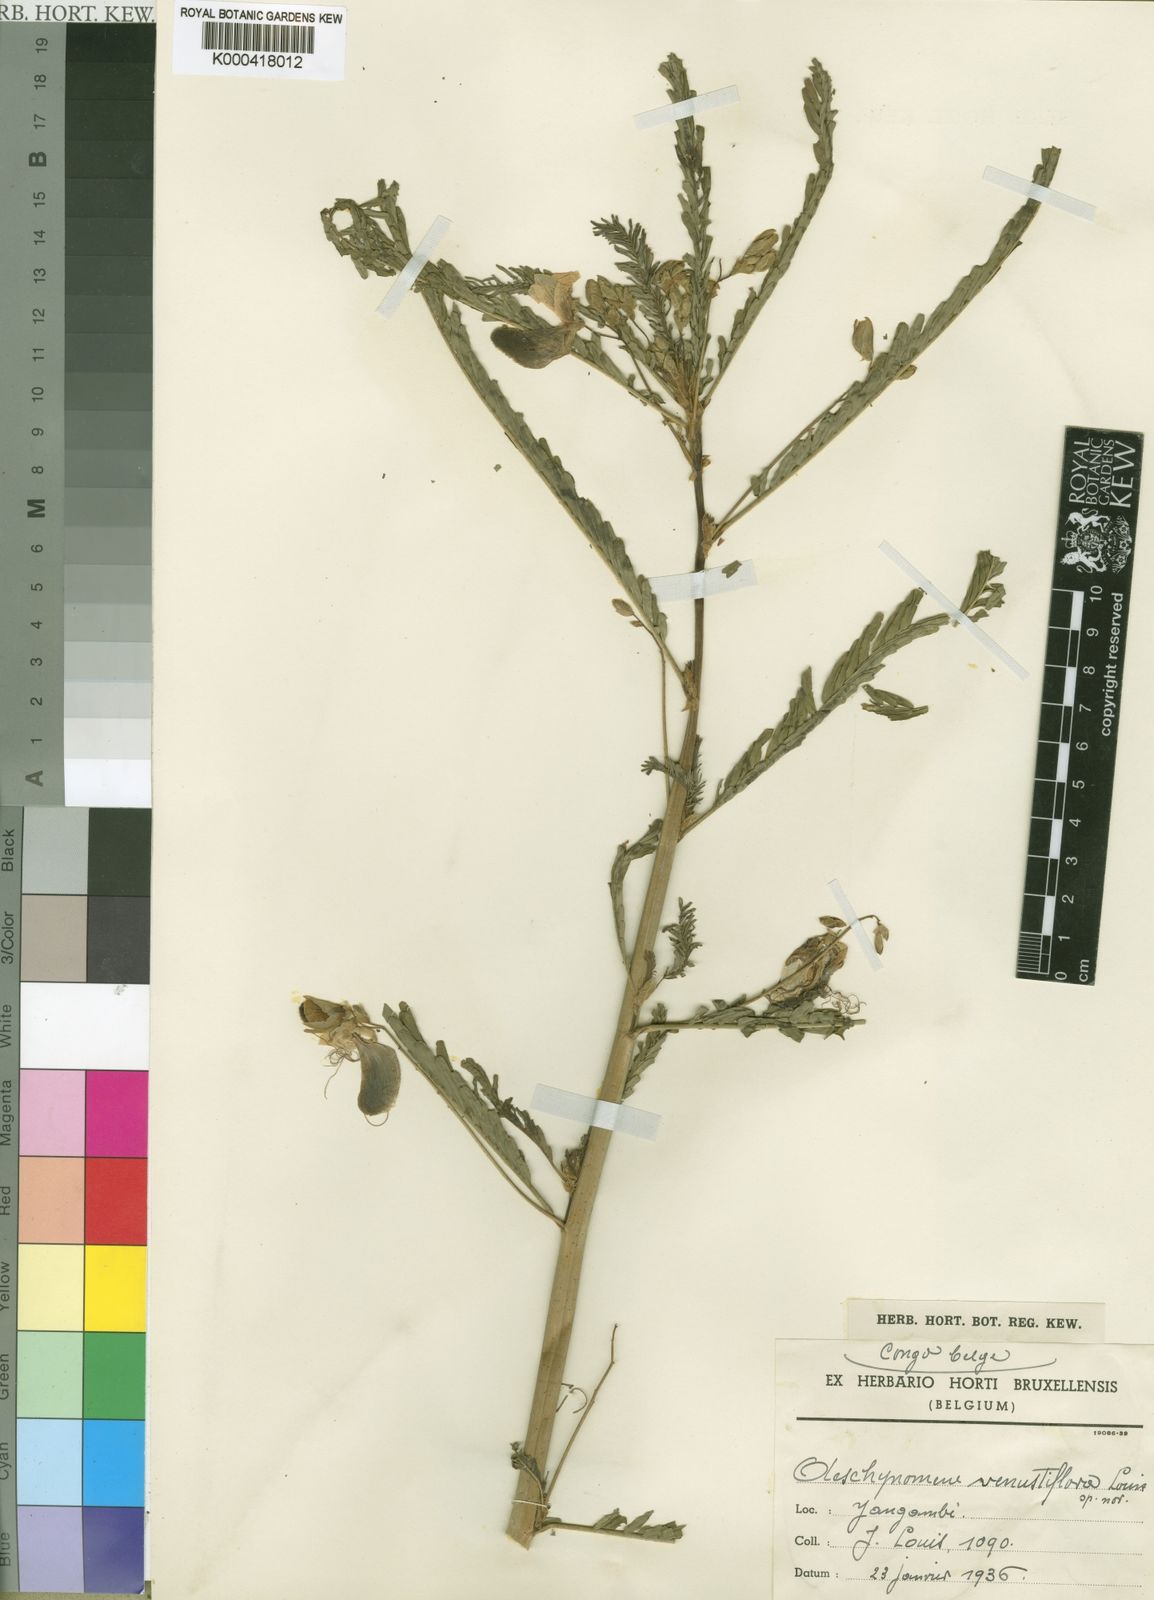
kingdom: Plantae
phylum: Tracheophyta
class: Magnoliopsida
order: Fabales
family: Fabaceae
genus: Aeschynomene
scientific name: Aeschynomene nilotica
